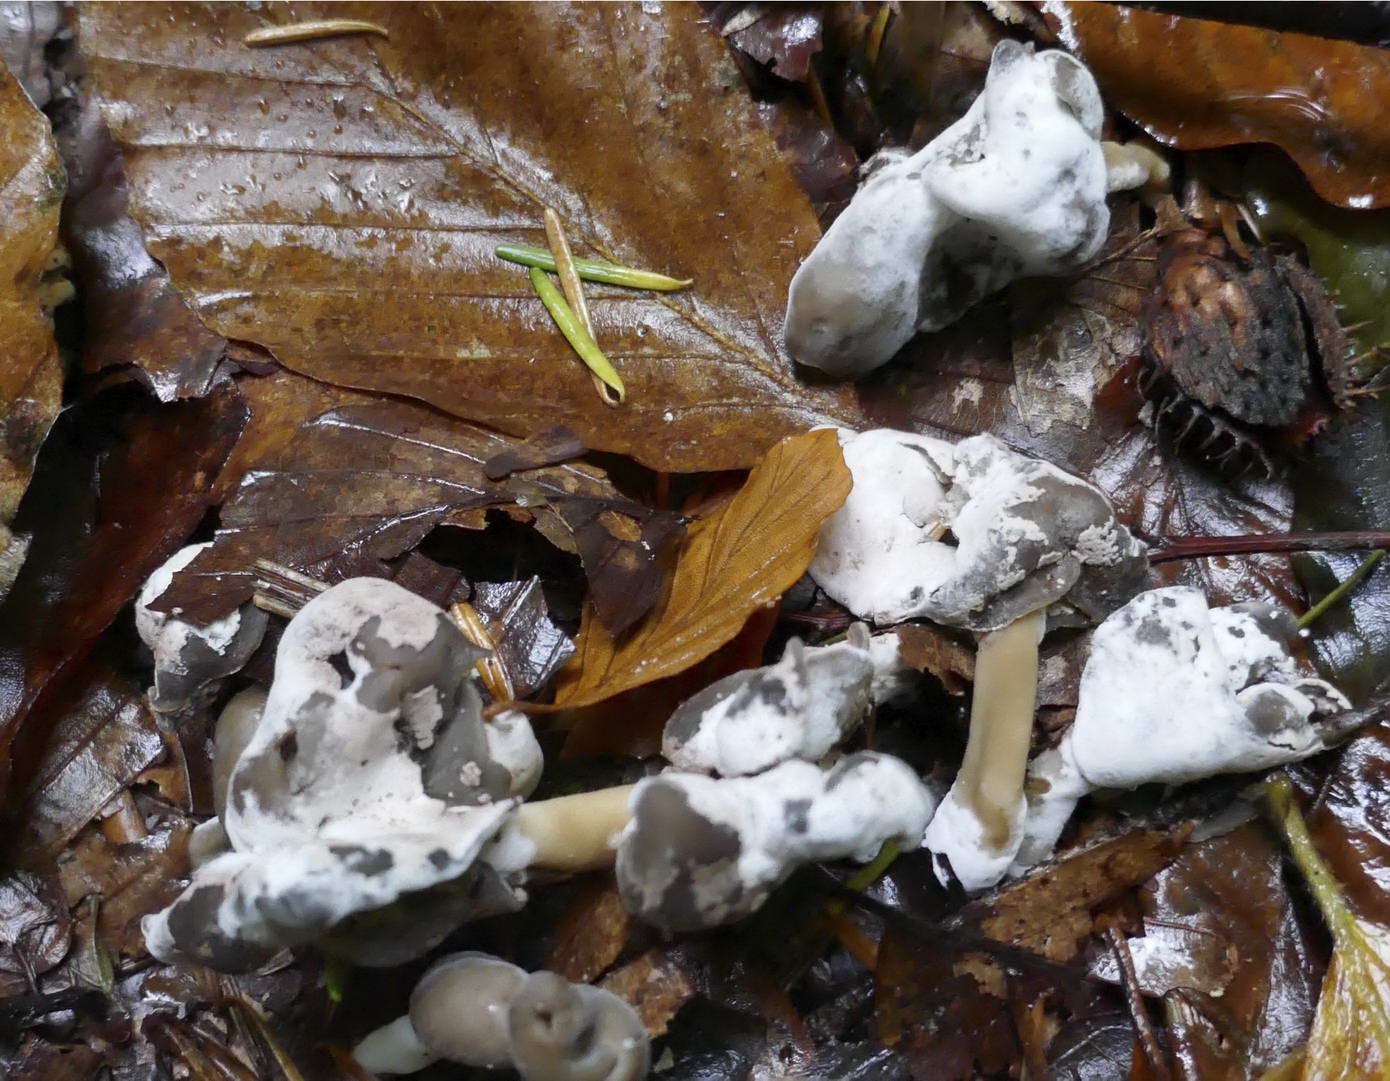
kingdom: Fungi
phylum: Ascomycota
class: Sordariomycetes
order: Hypocreales
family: Hypocreaceae
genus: Hypomyces
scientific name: Hypomyces cervinus
